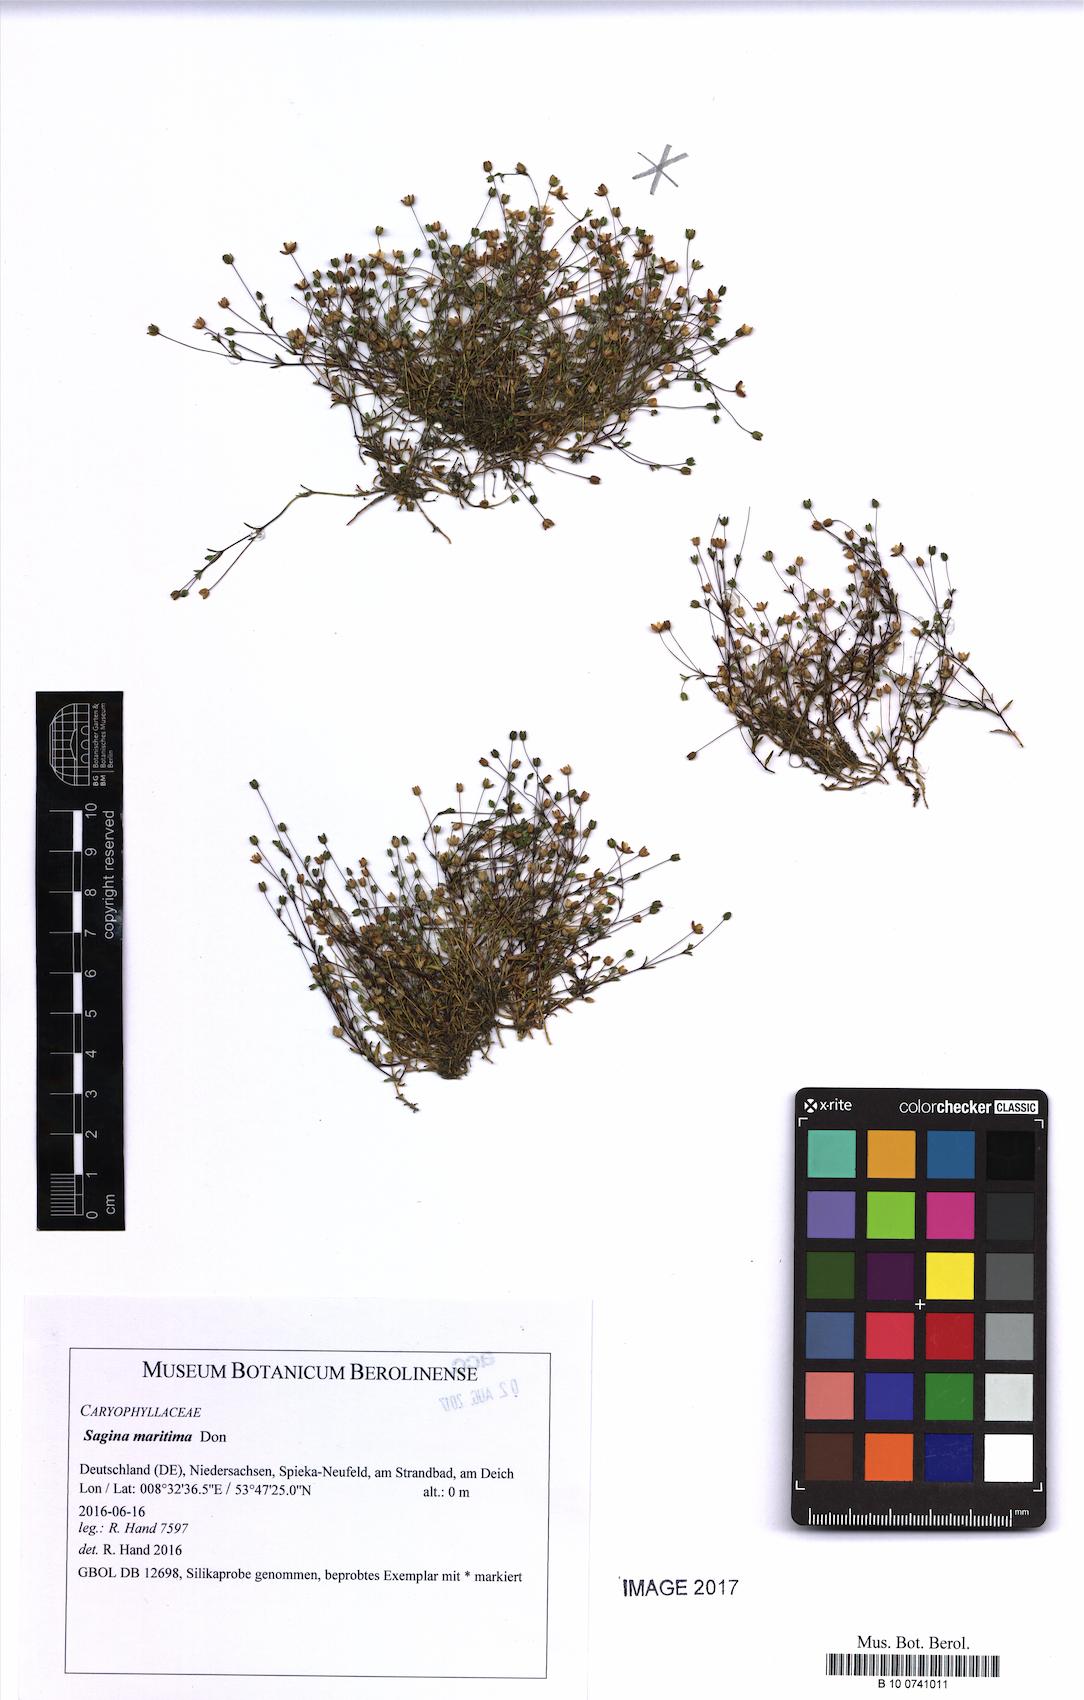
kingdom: Plantae
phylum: Tracheophyta
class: Magnoliopsida
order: Caryophyllales
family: Caryophyllaceae
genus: Sagina
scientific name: Sagina maritima
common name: Sea pearlwort
